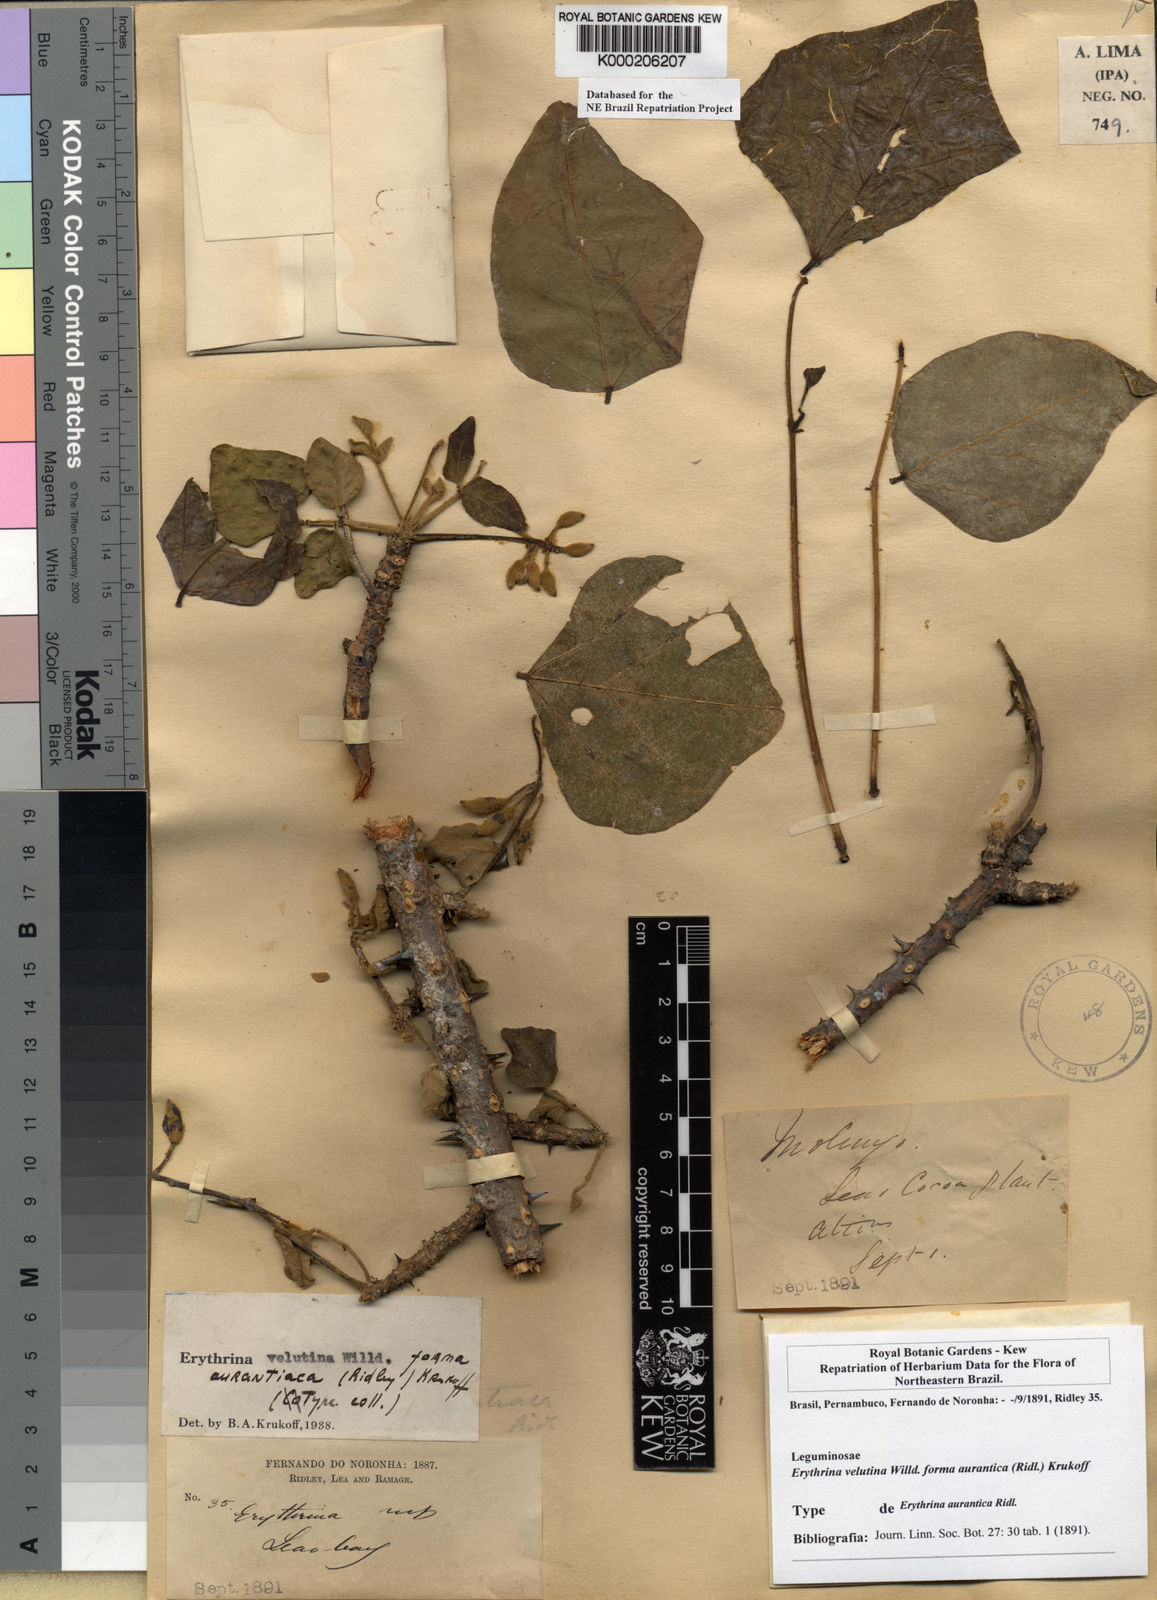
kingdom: Plantae
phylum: Tracheophyta
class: Magnoliopsida
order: Fabales
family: Fabaceae
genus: Erythrina
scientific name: Erythrina velutina
